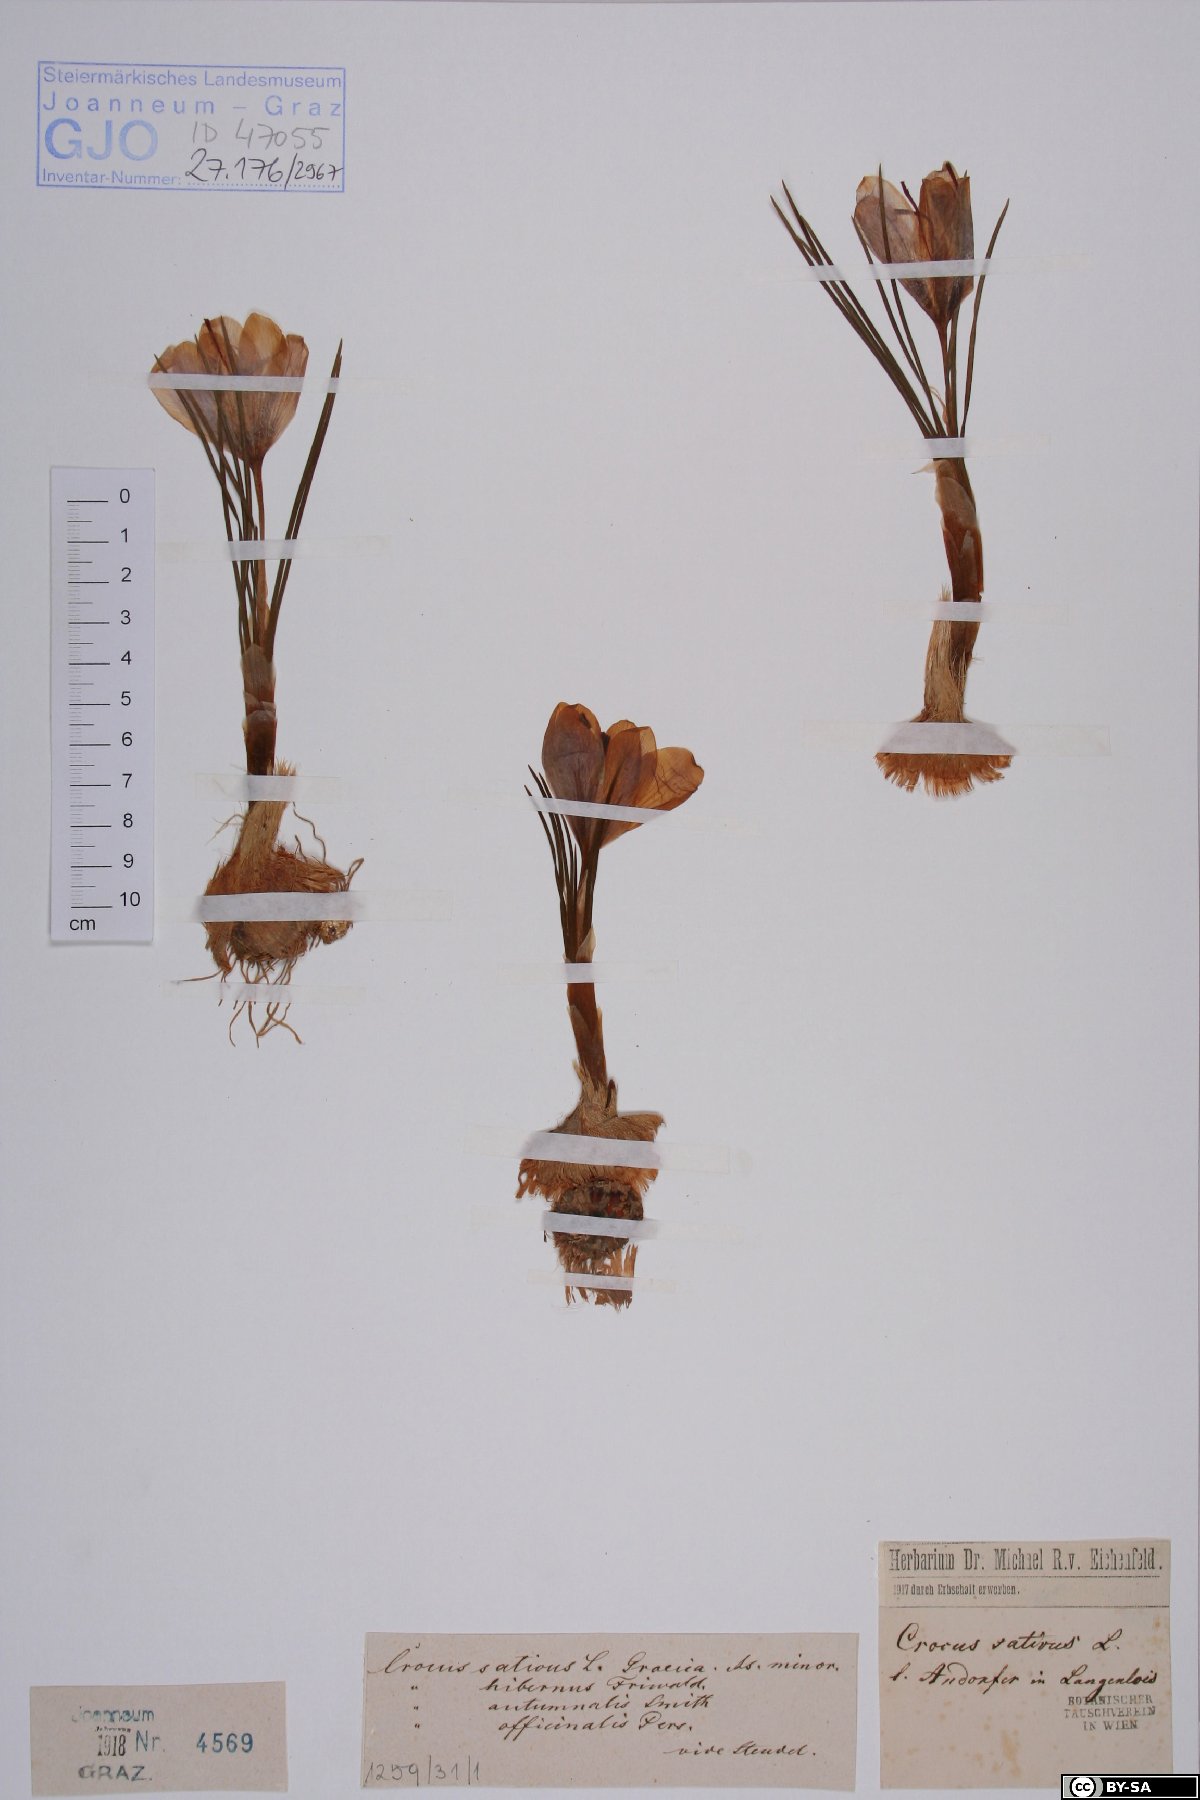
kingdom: Plantae
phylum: Tracheophyta
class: Liliopsida
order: Asparagales
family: Iridaceae
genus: Crocus
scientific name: Crocus sativus
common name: Saffron crocus
